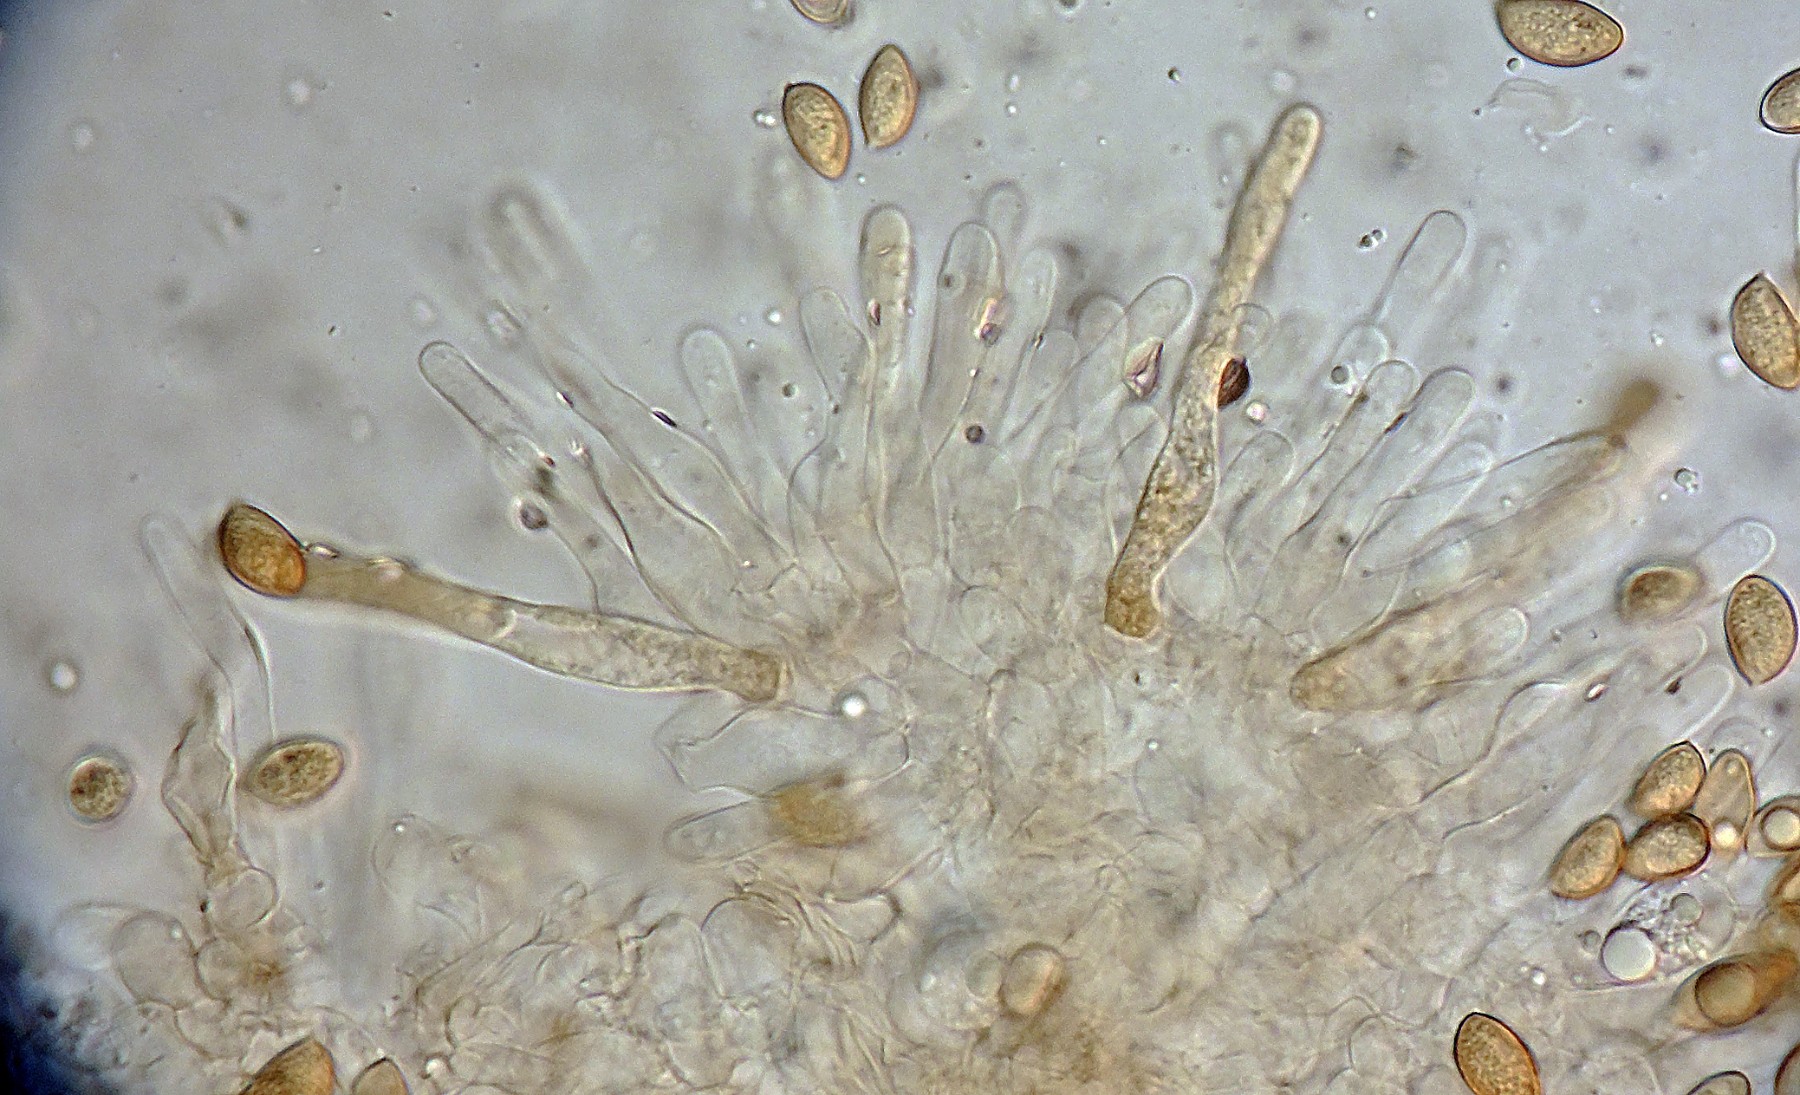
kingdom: Fungi
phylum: Basidiomycota
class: Agaricomycetes
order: Agaricales
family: Hymenogastraceae
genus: Hebeloma
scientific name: Hebeloma paludicola
